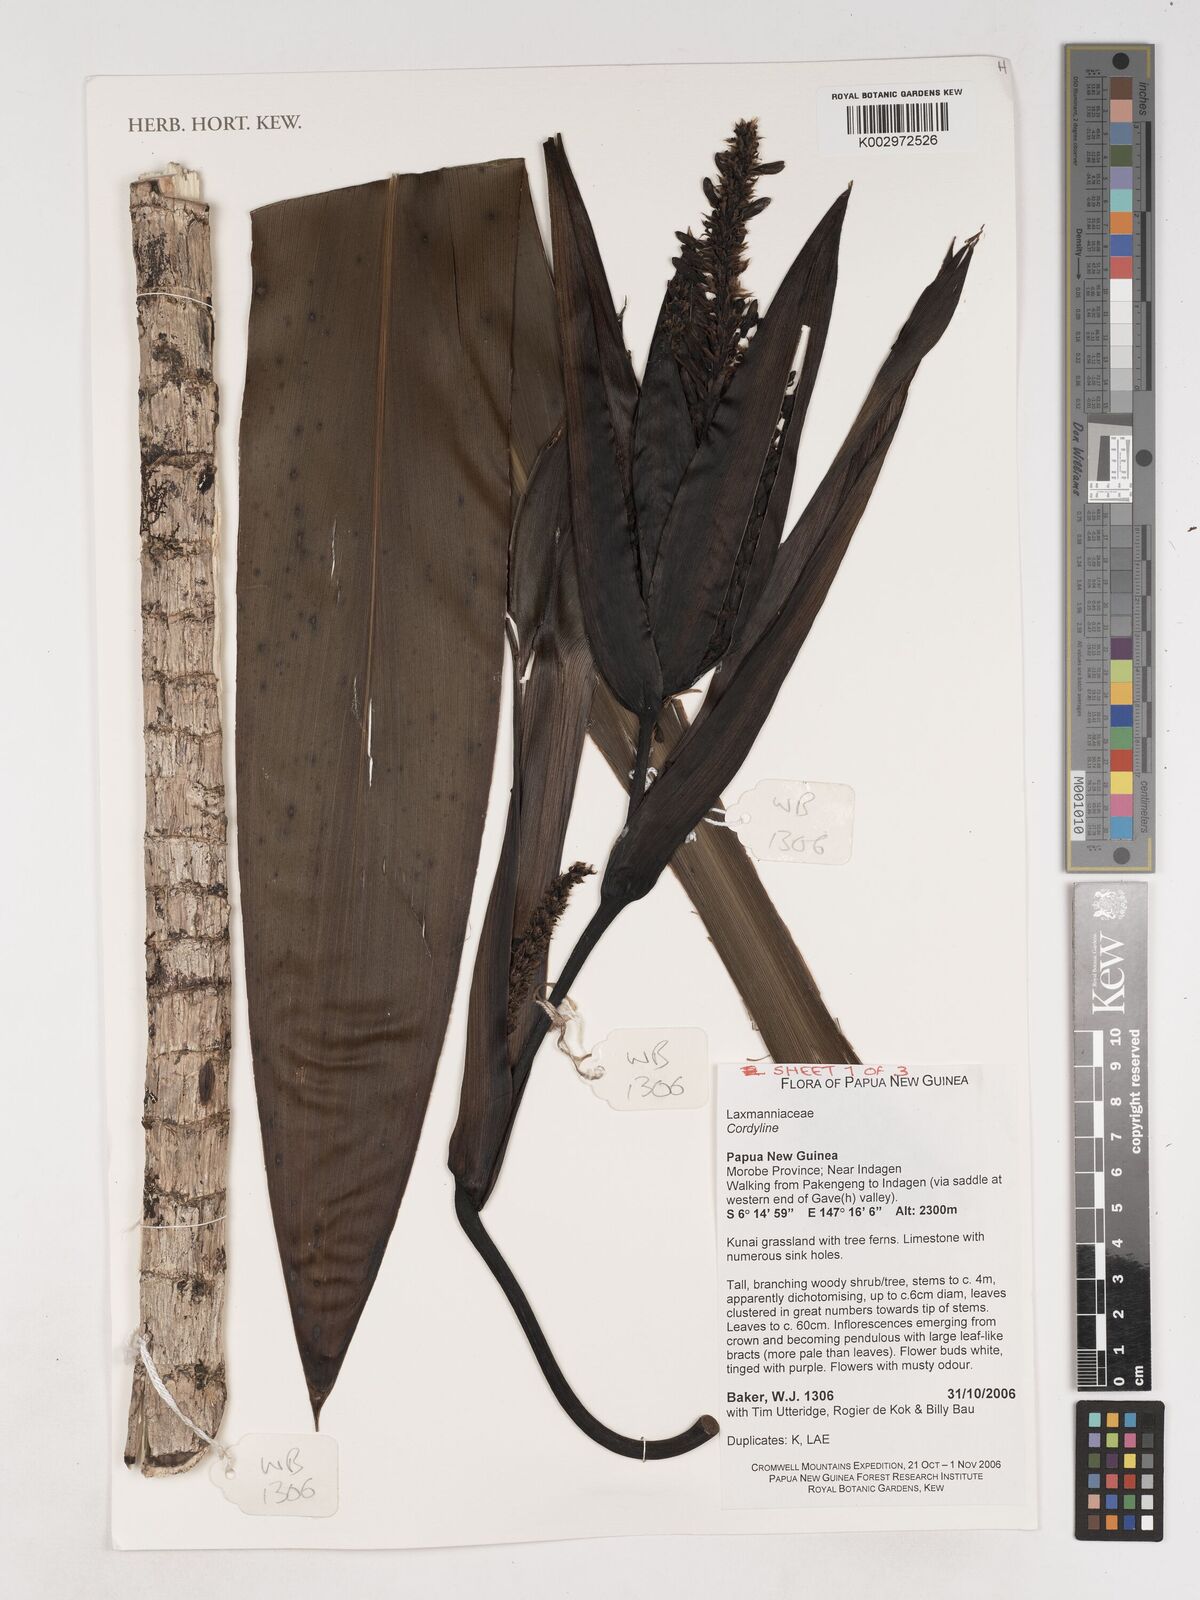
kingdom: Plantae
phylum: Tracheophyta
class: Liliopsida
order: Asparagales
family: Asparagaceae
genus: Cordyline
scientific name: Cordyline
